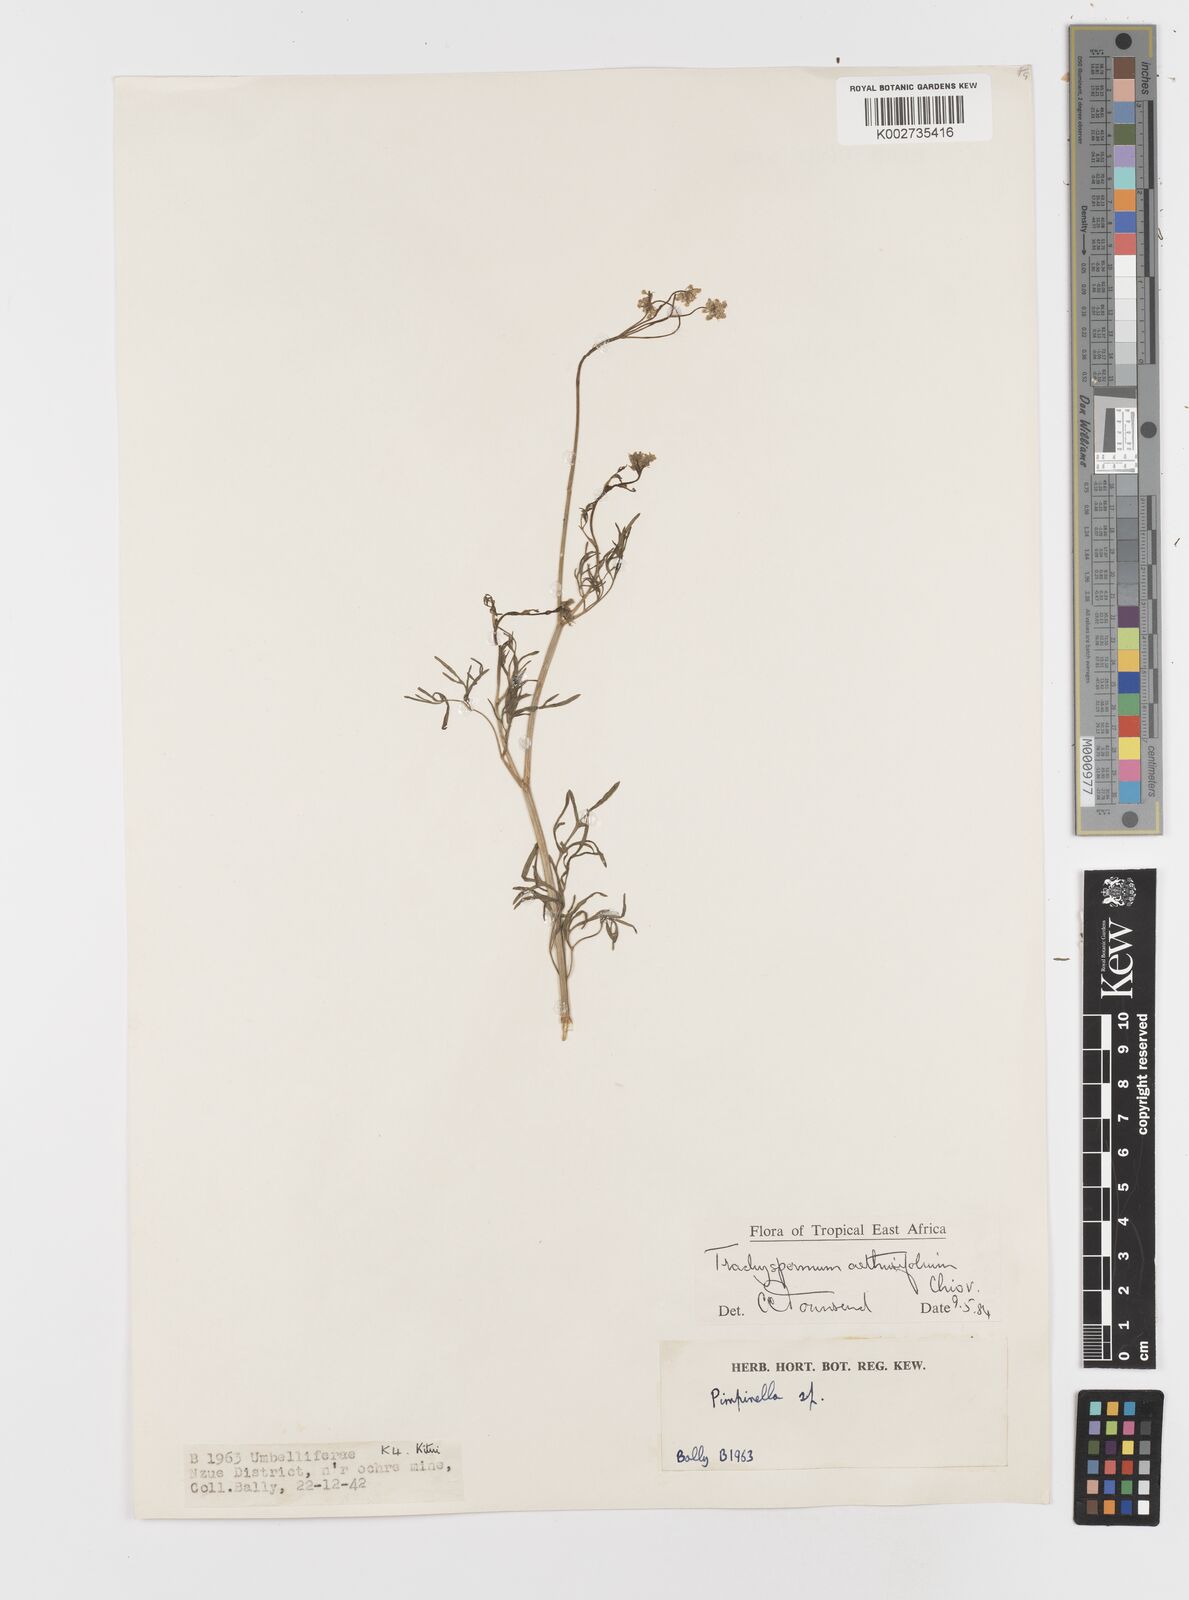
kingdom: Plantae
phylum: Tracheophyta
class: Magnoliopsida
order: Apiales
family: Apiaceae
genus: Trachyspermum
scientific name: Trachyspermum pimpinelloides
